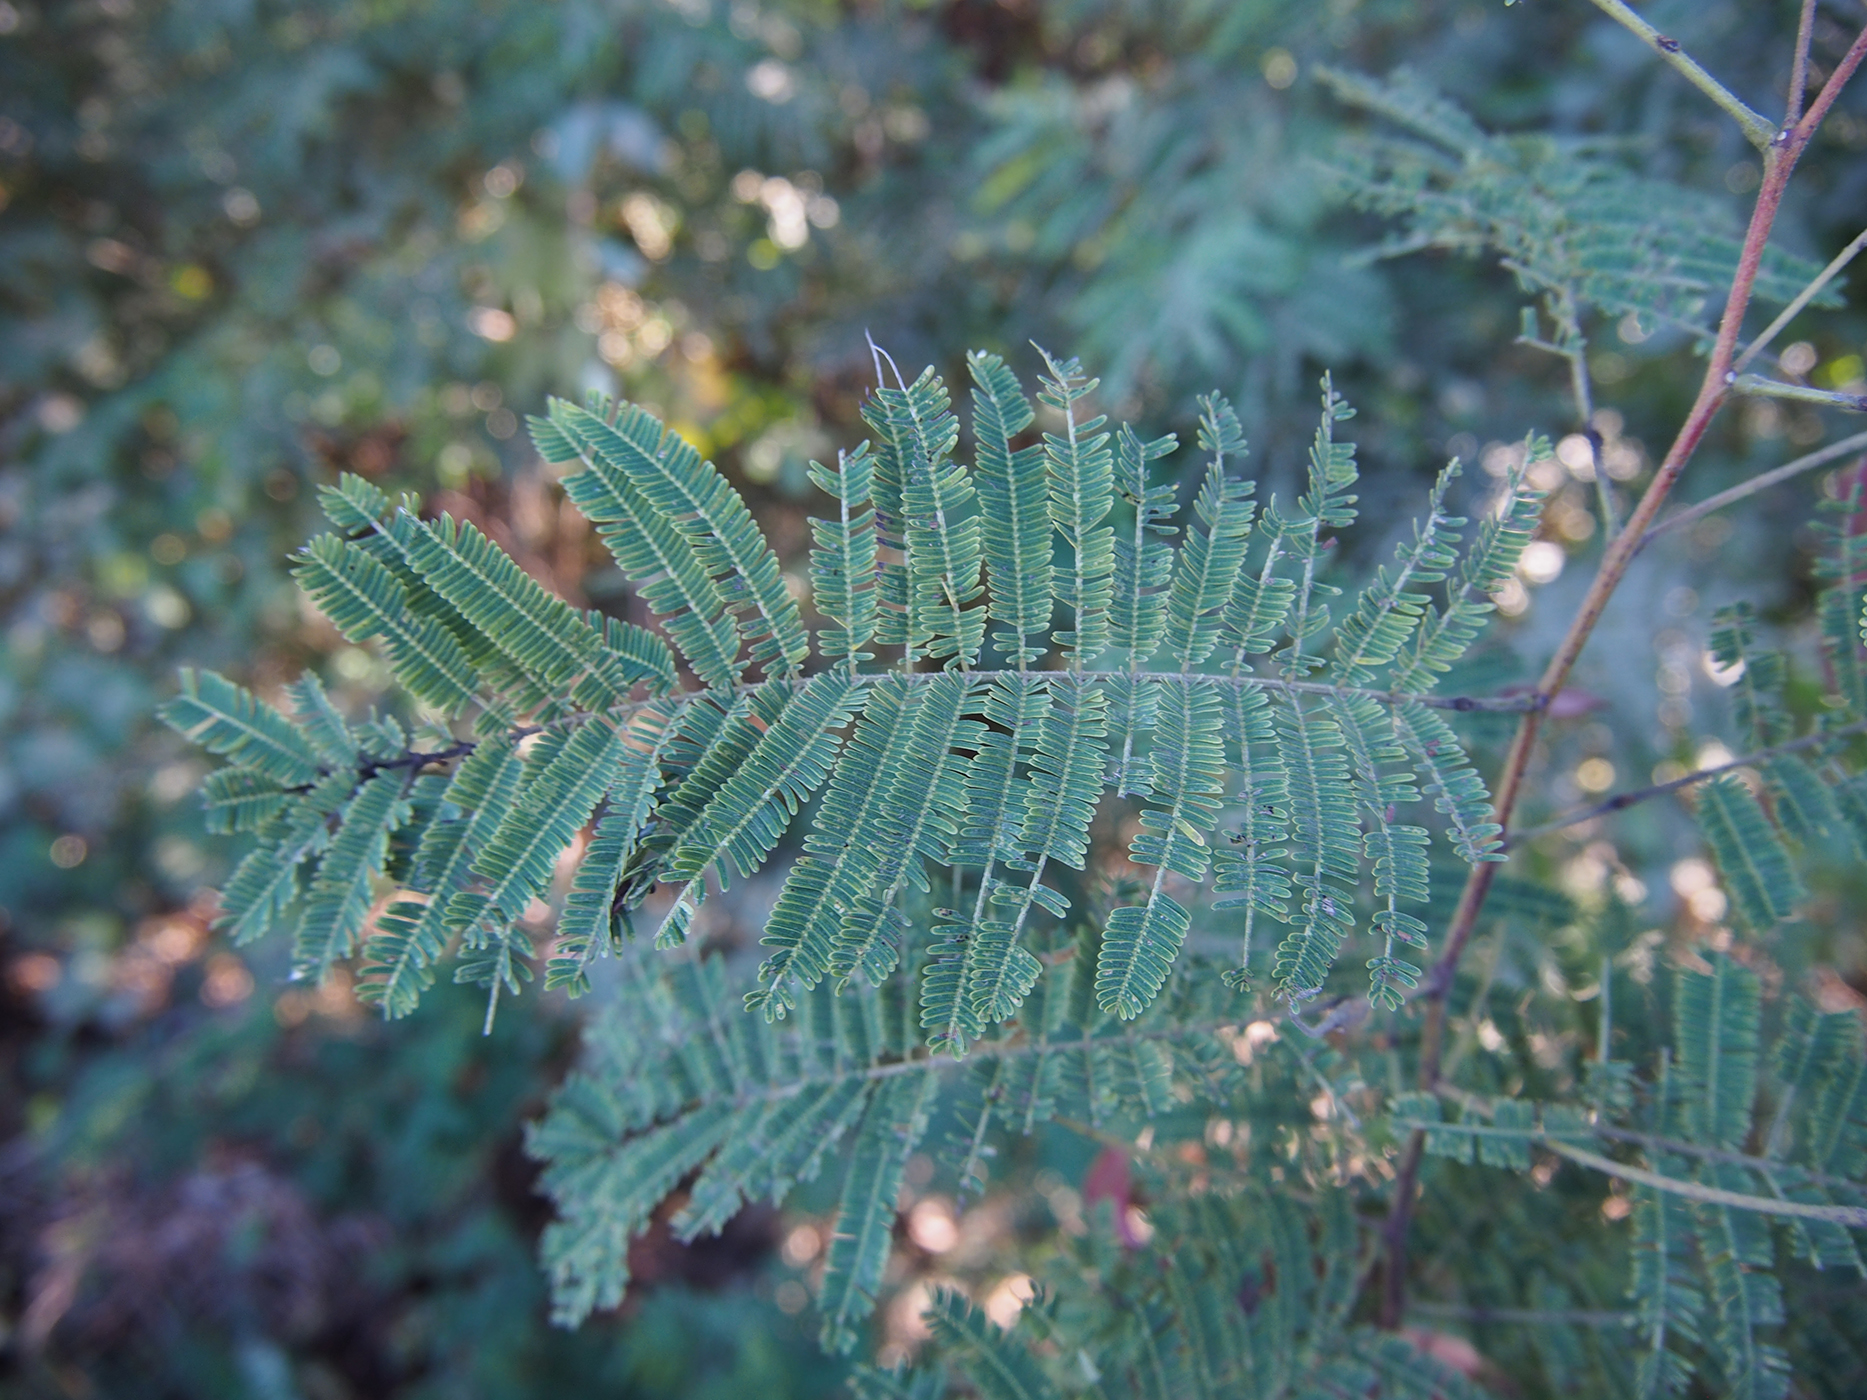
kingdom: Plantae
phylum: Tracheophyta
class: Magnoliopsida
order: Fabales
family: Fabaceae
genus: Senegalia
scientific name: Senegalia catechu
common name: Black cutch
